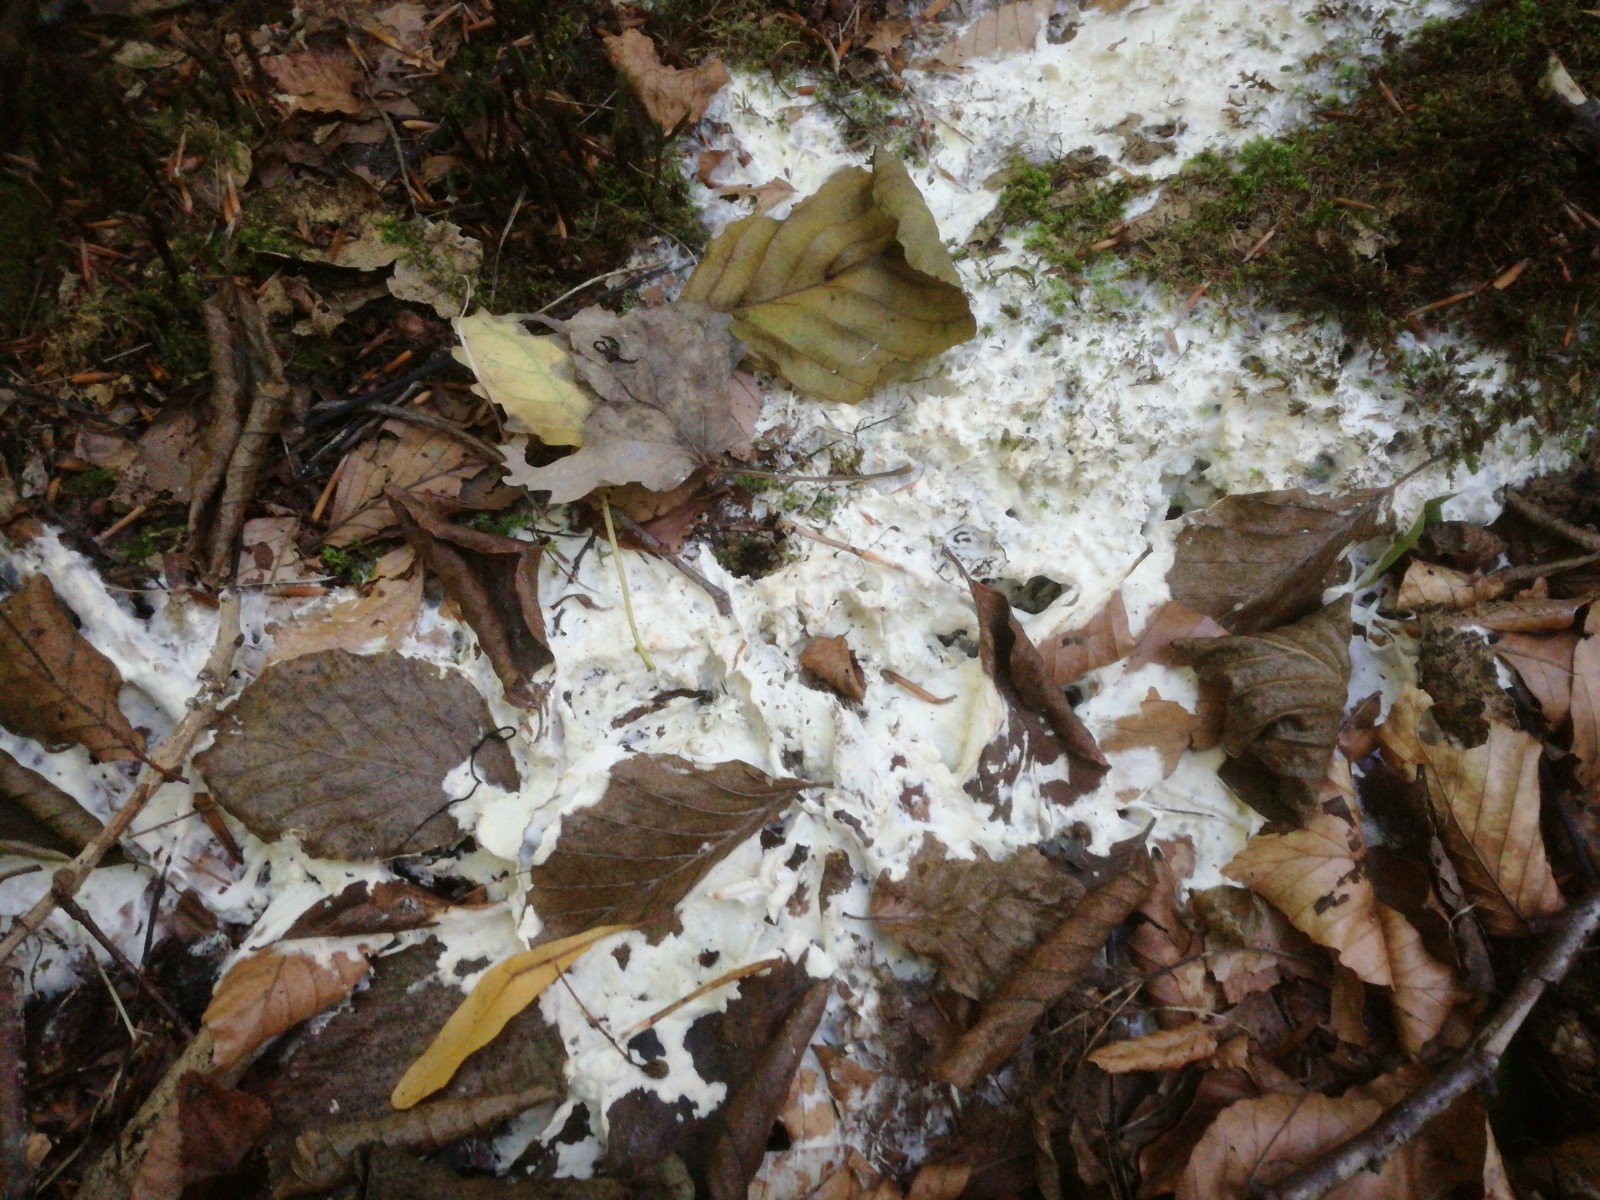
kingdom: Fungi
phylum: Ascomycota
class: Sordariomycetes
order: Hypocreales
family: Hypocreaceae
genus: Trichoderma
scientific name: Trichoderma citrinum
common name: udbredt kødkerne
